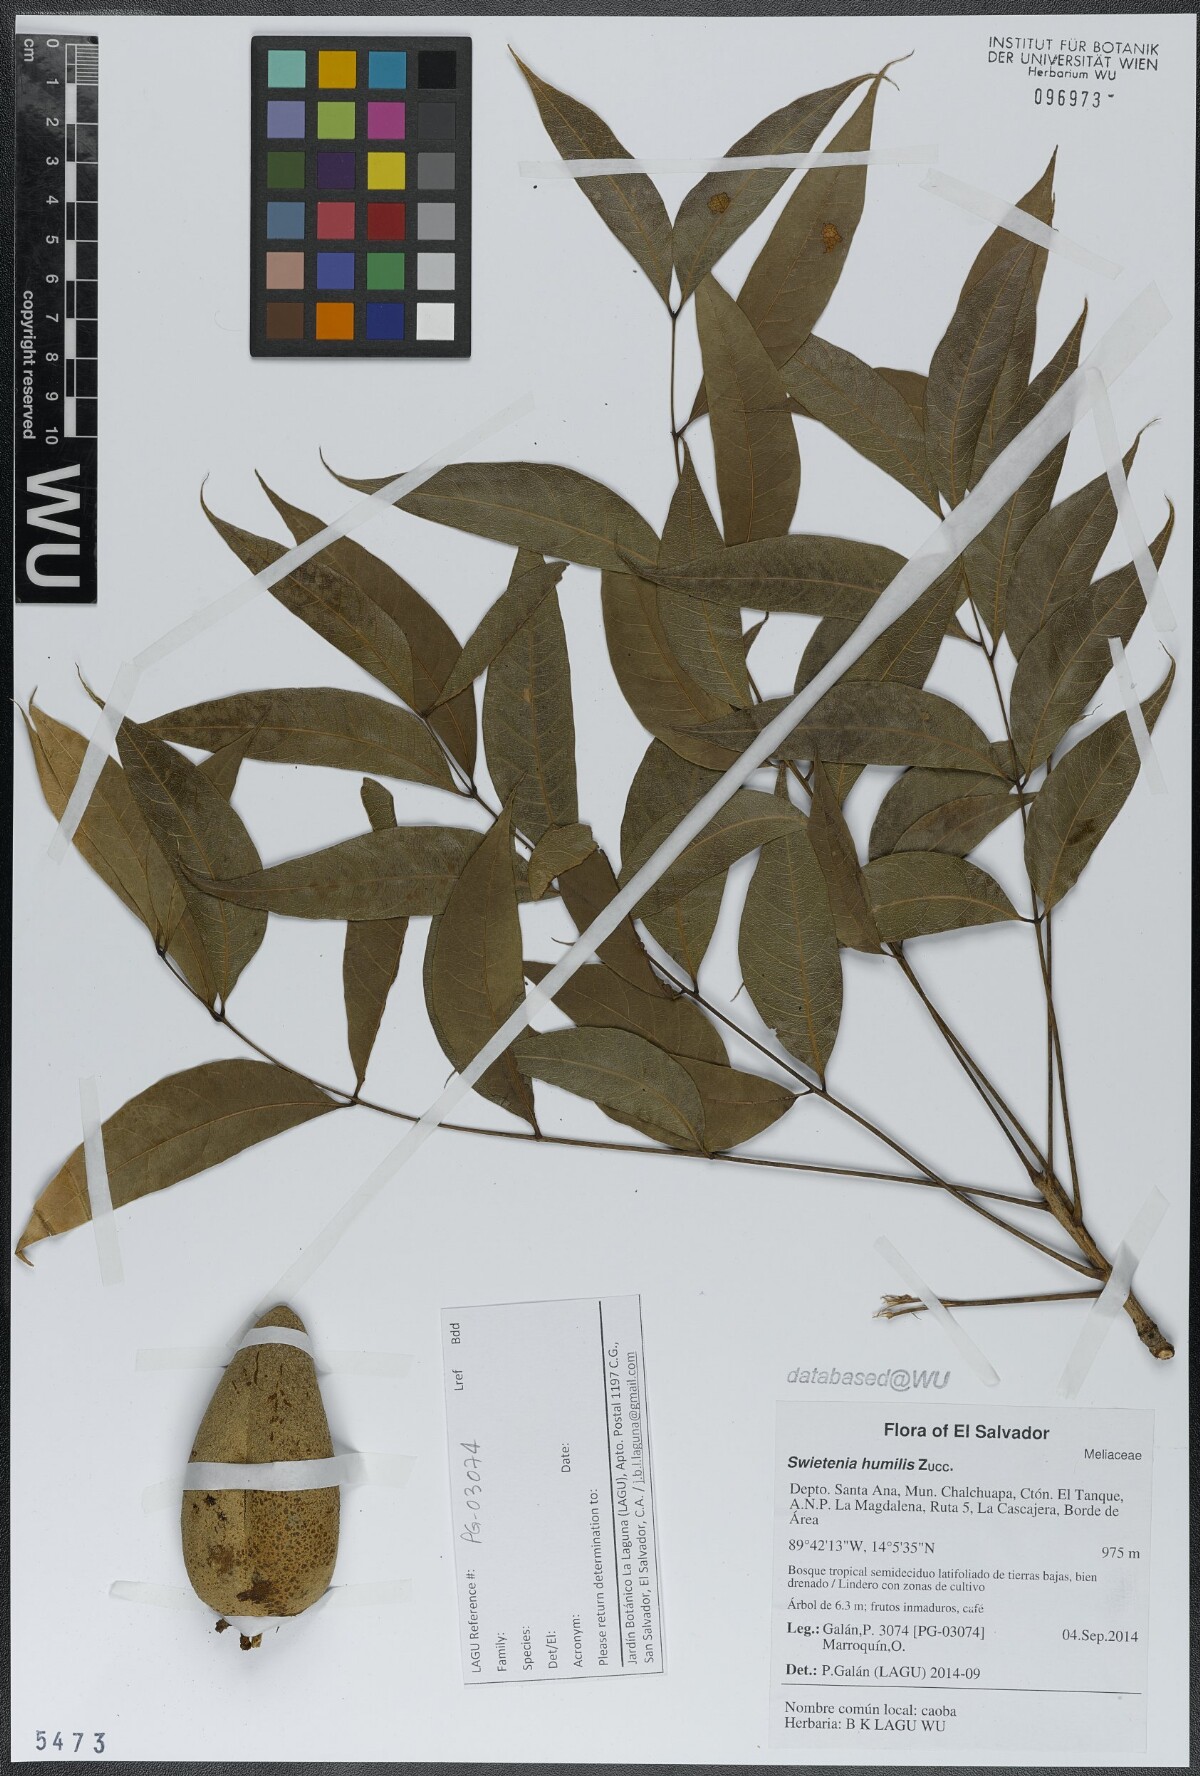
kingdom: Plantae
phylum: Tracheophyta
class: Magnoliopsida
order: Sapindales
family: Meliaceae
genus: Swietenia
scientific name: Swietenia humilis
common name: Pacific coast mahogany
